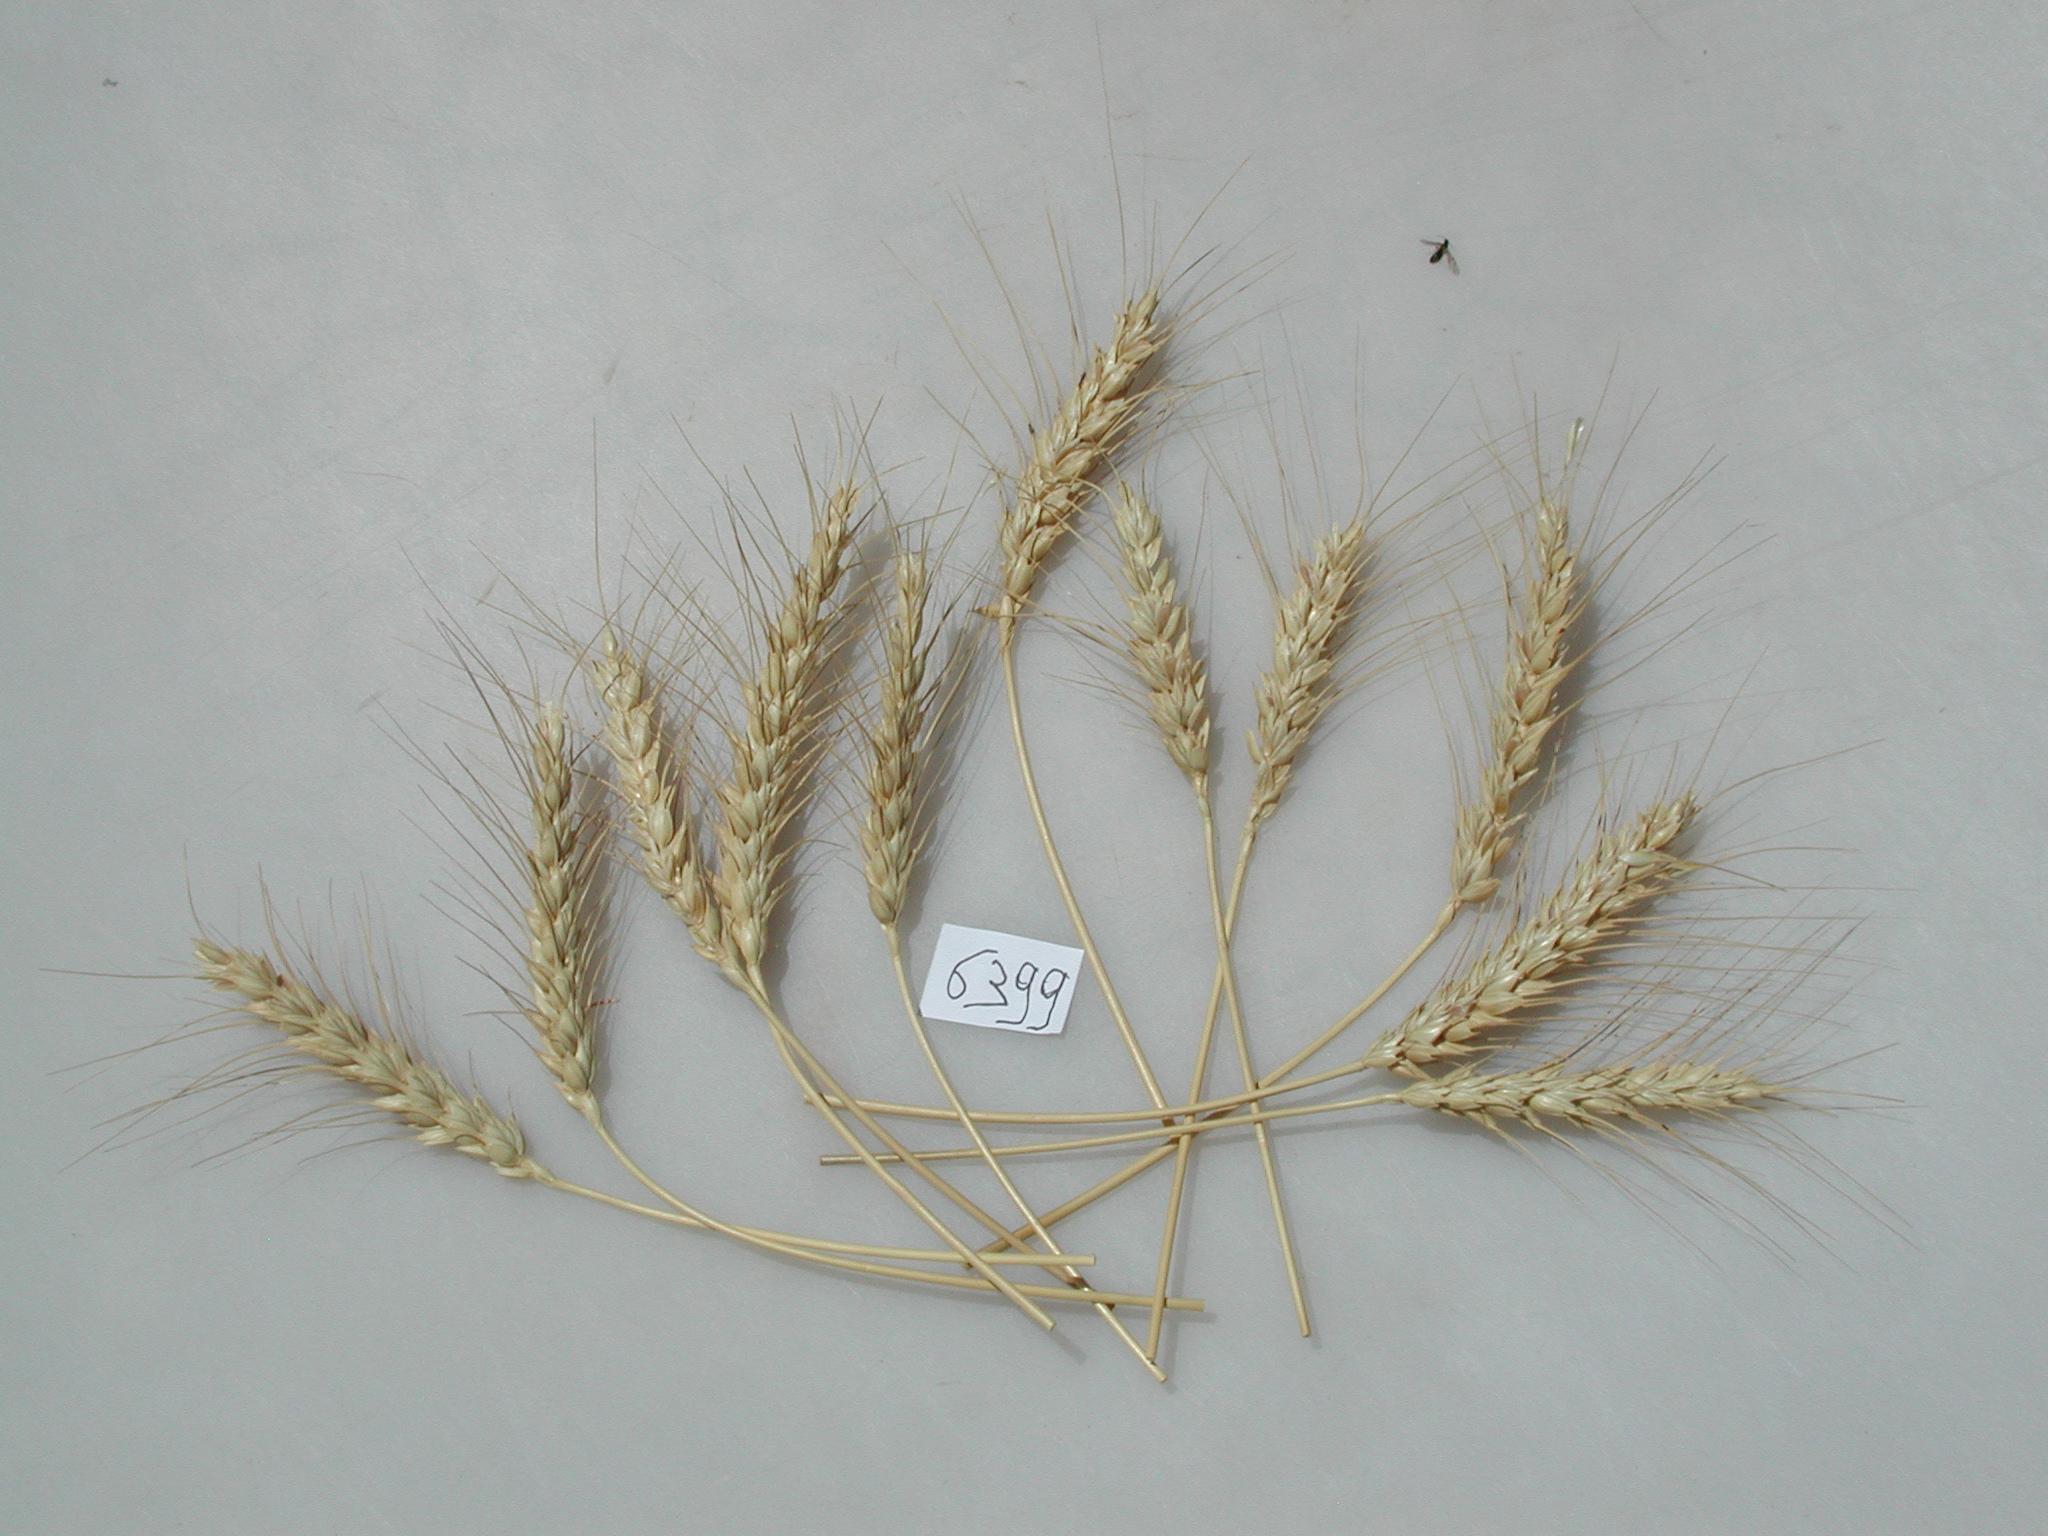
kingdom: Plantae
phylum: Tracheophyta
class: Liliopsida
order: Poales
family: Poaceae
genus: Triticum
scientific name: Triticum aestivum
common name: Wheat
